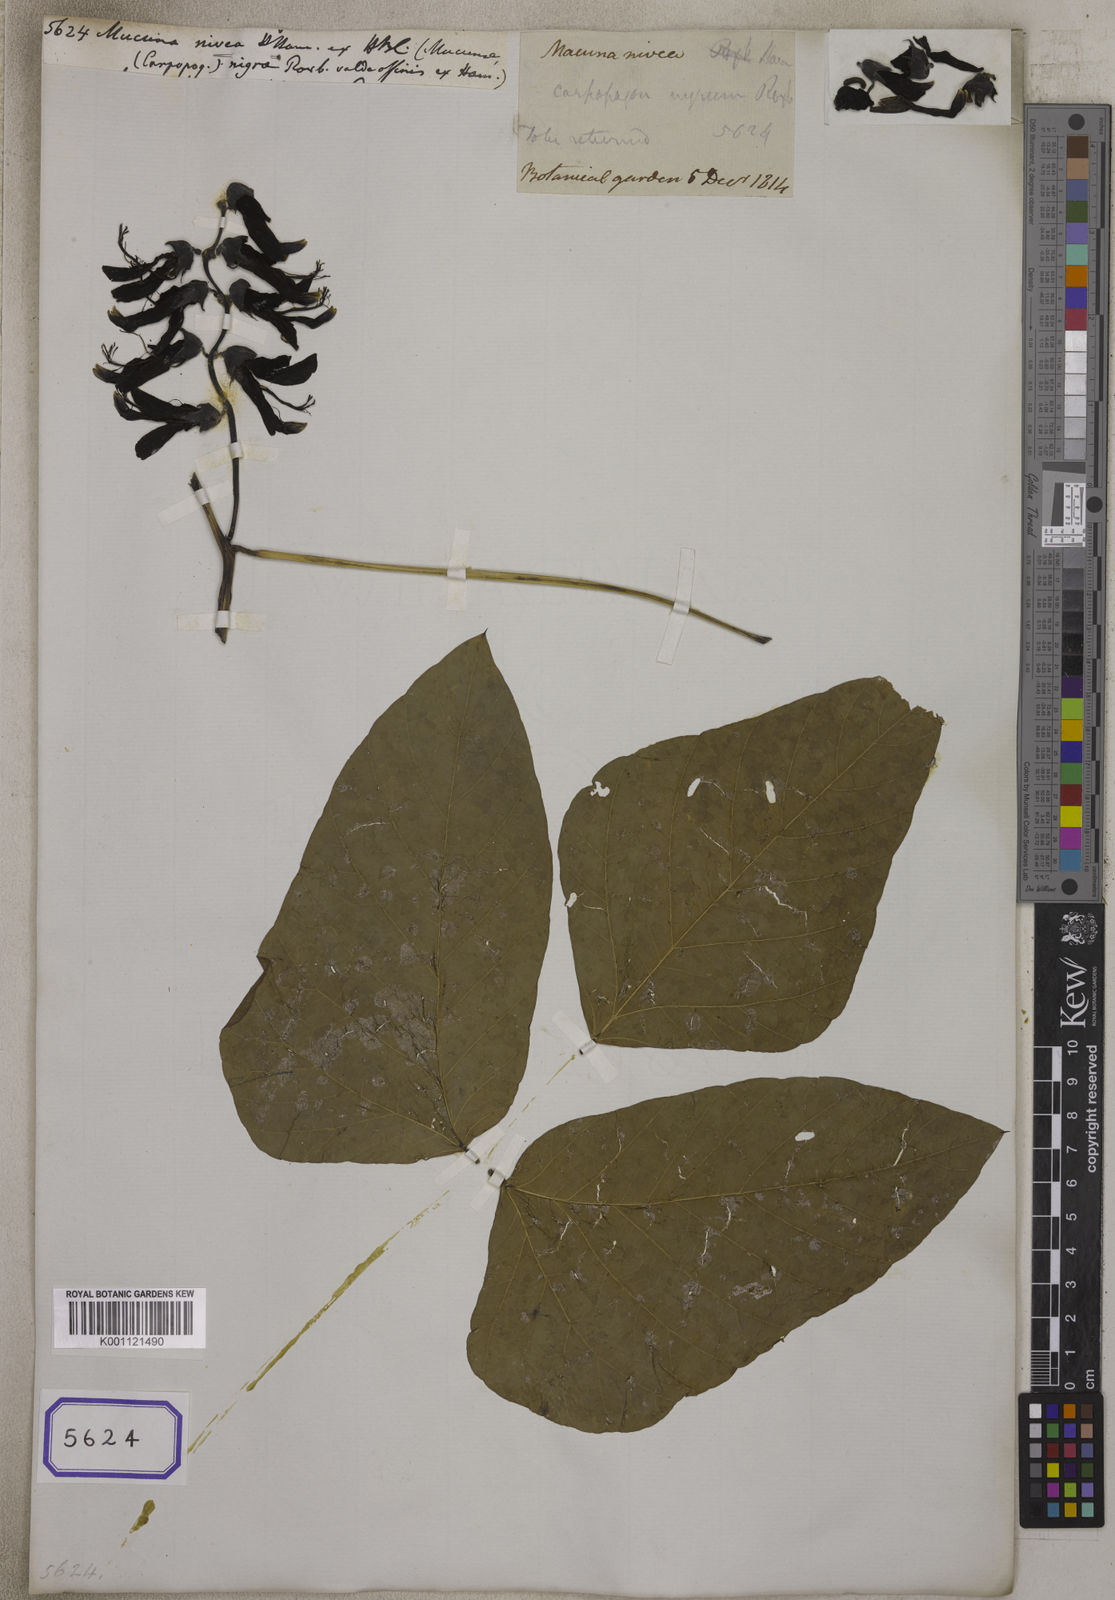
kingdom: Plantae
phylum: Tracheophyta
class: Magnoliopsida
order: Fabales
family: Fabaceae
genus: Mucuna
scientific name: Mucuna
